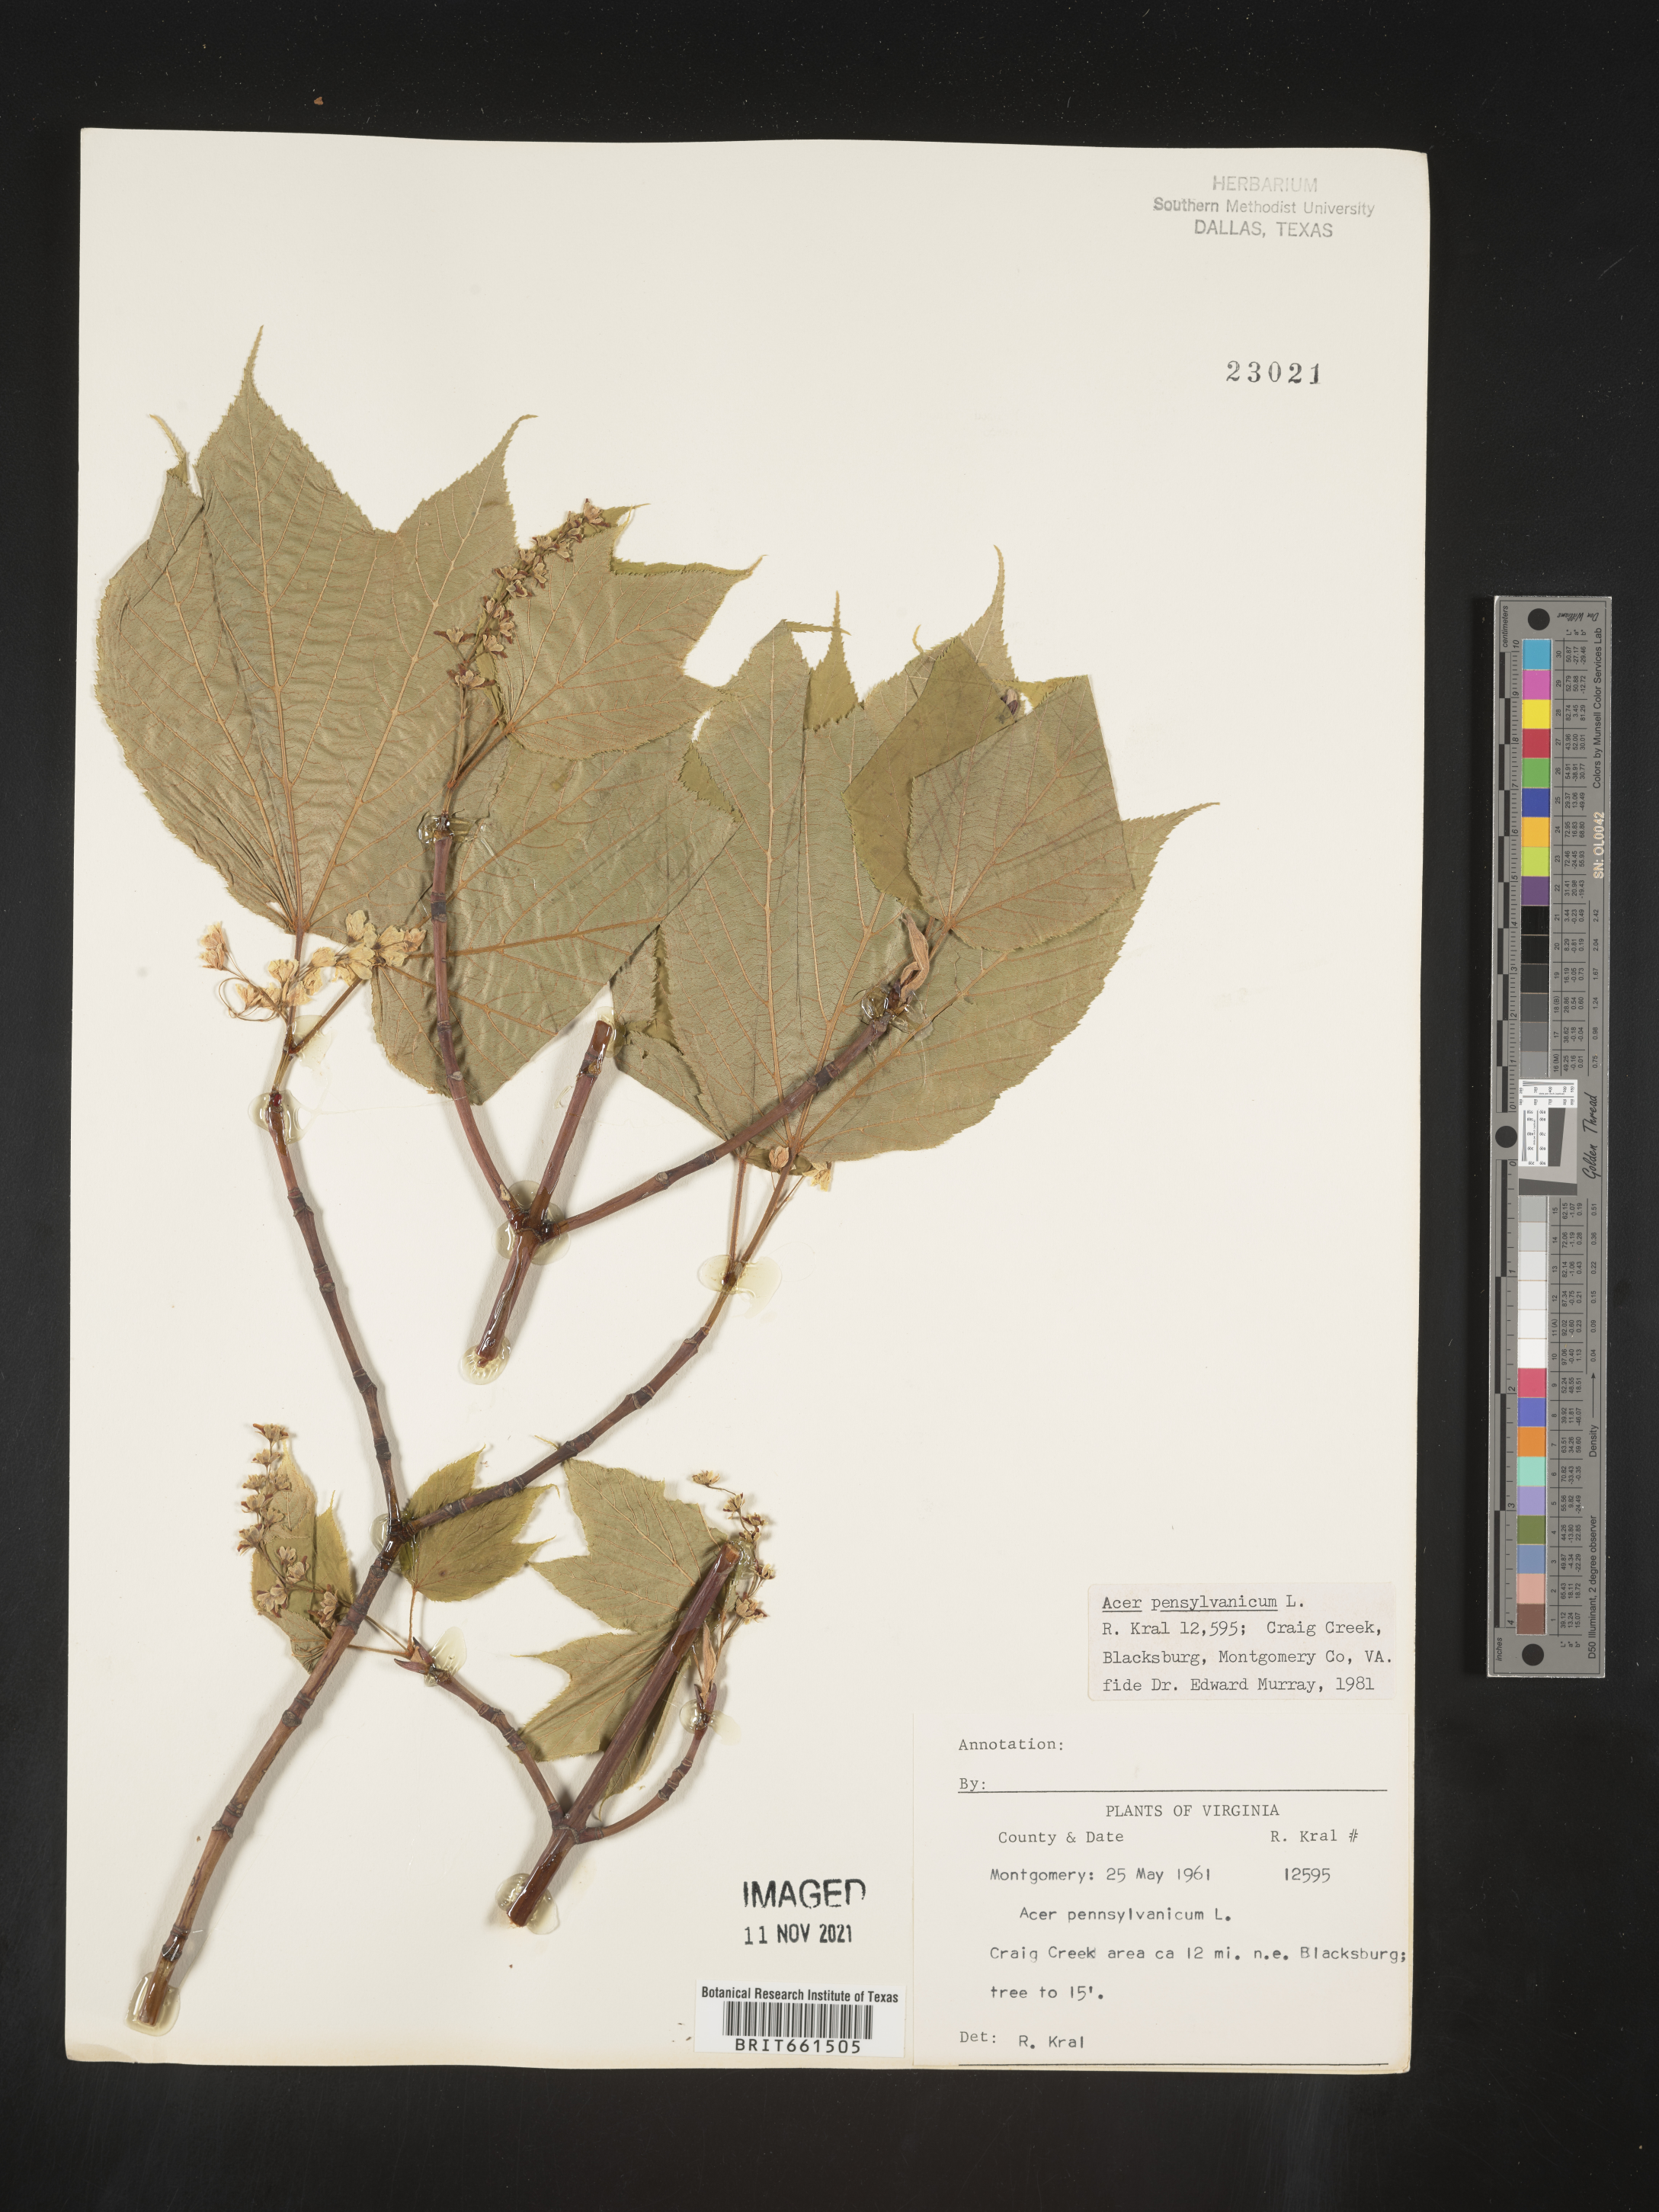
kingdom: Plantae
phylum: Tracheophyta
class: Magnoliopsida
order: Sapindales
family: Sapindaceae
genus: Acer
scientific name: Acer pensylvanicum
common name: Moosewood
